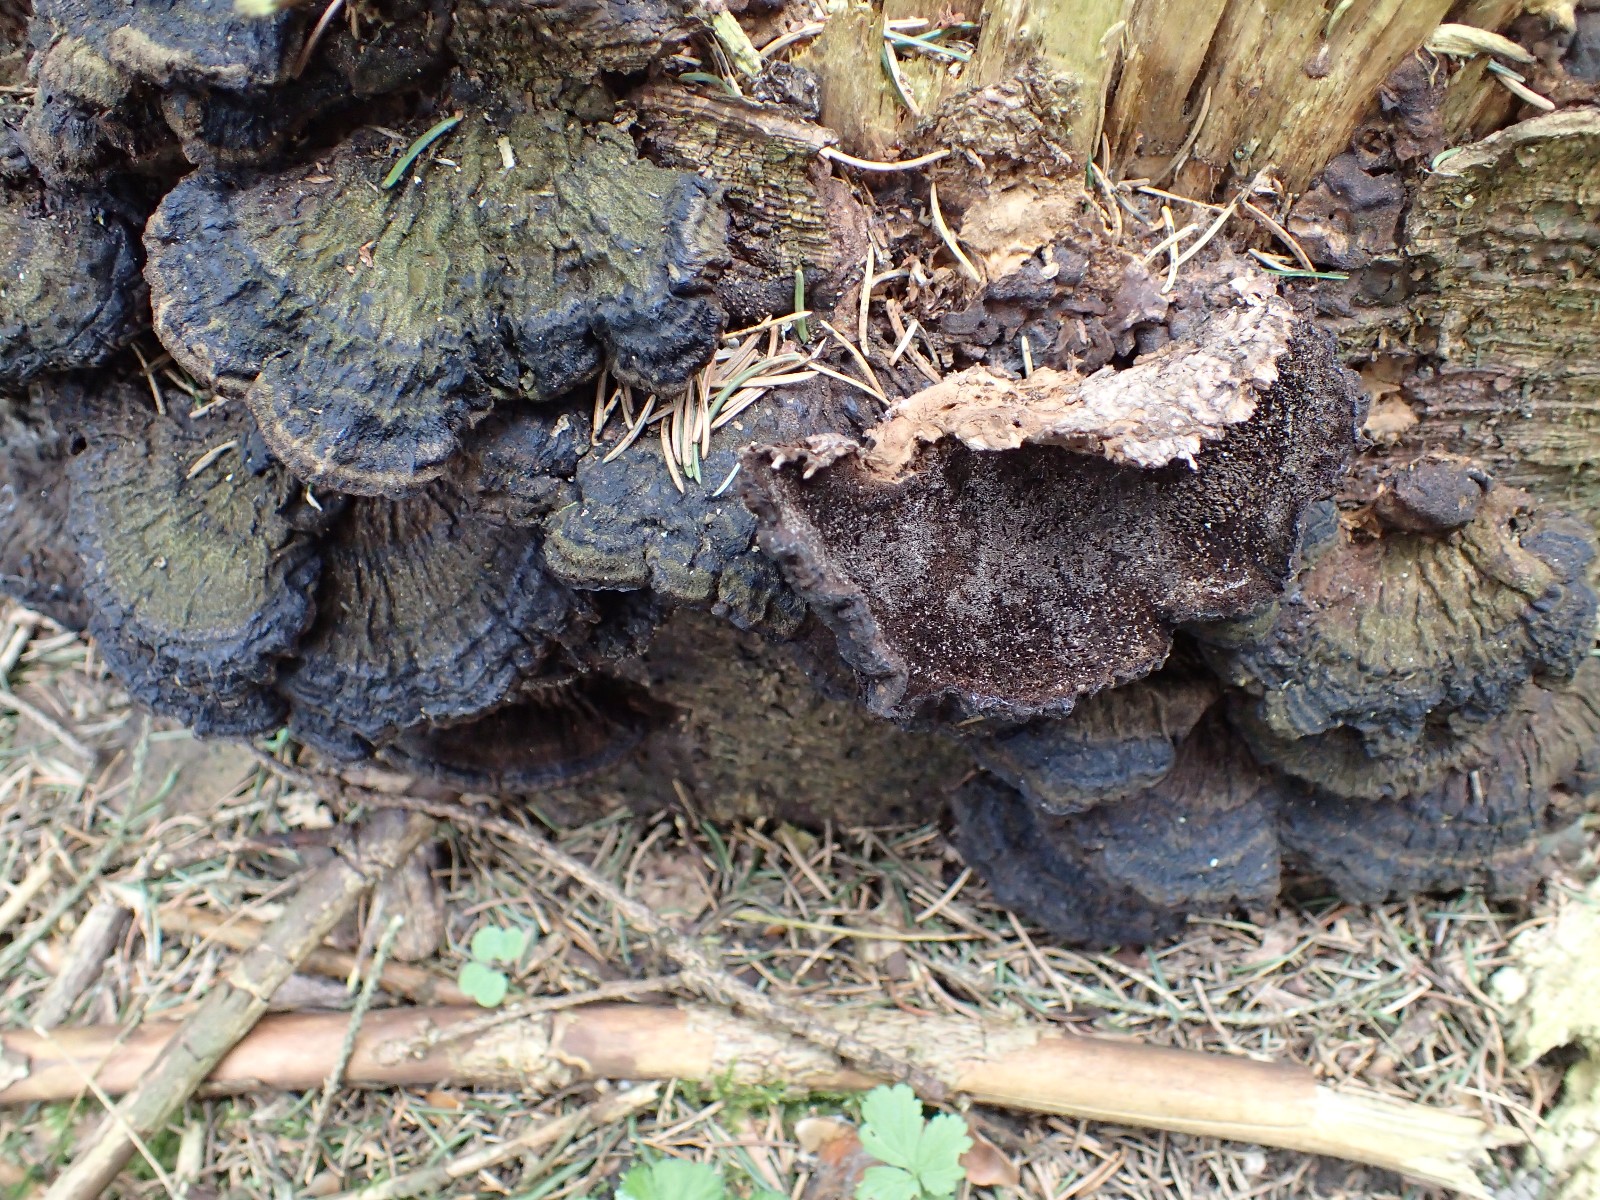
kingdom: Fungi
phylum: Basidiomycota
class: Agaricomycetes
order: Polyporales
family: Ischnodermataceae
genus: Ischnoderma
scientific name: Ischnoderma benzoinum
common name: gran-tjæreporesvamp
